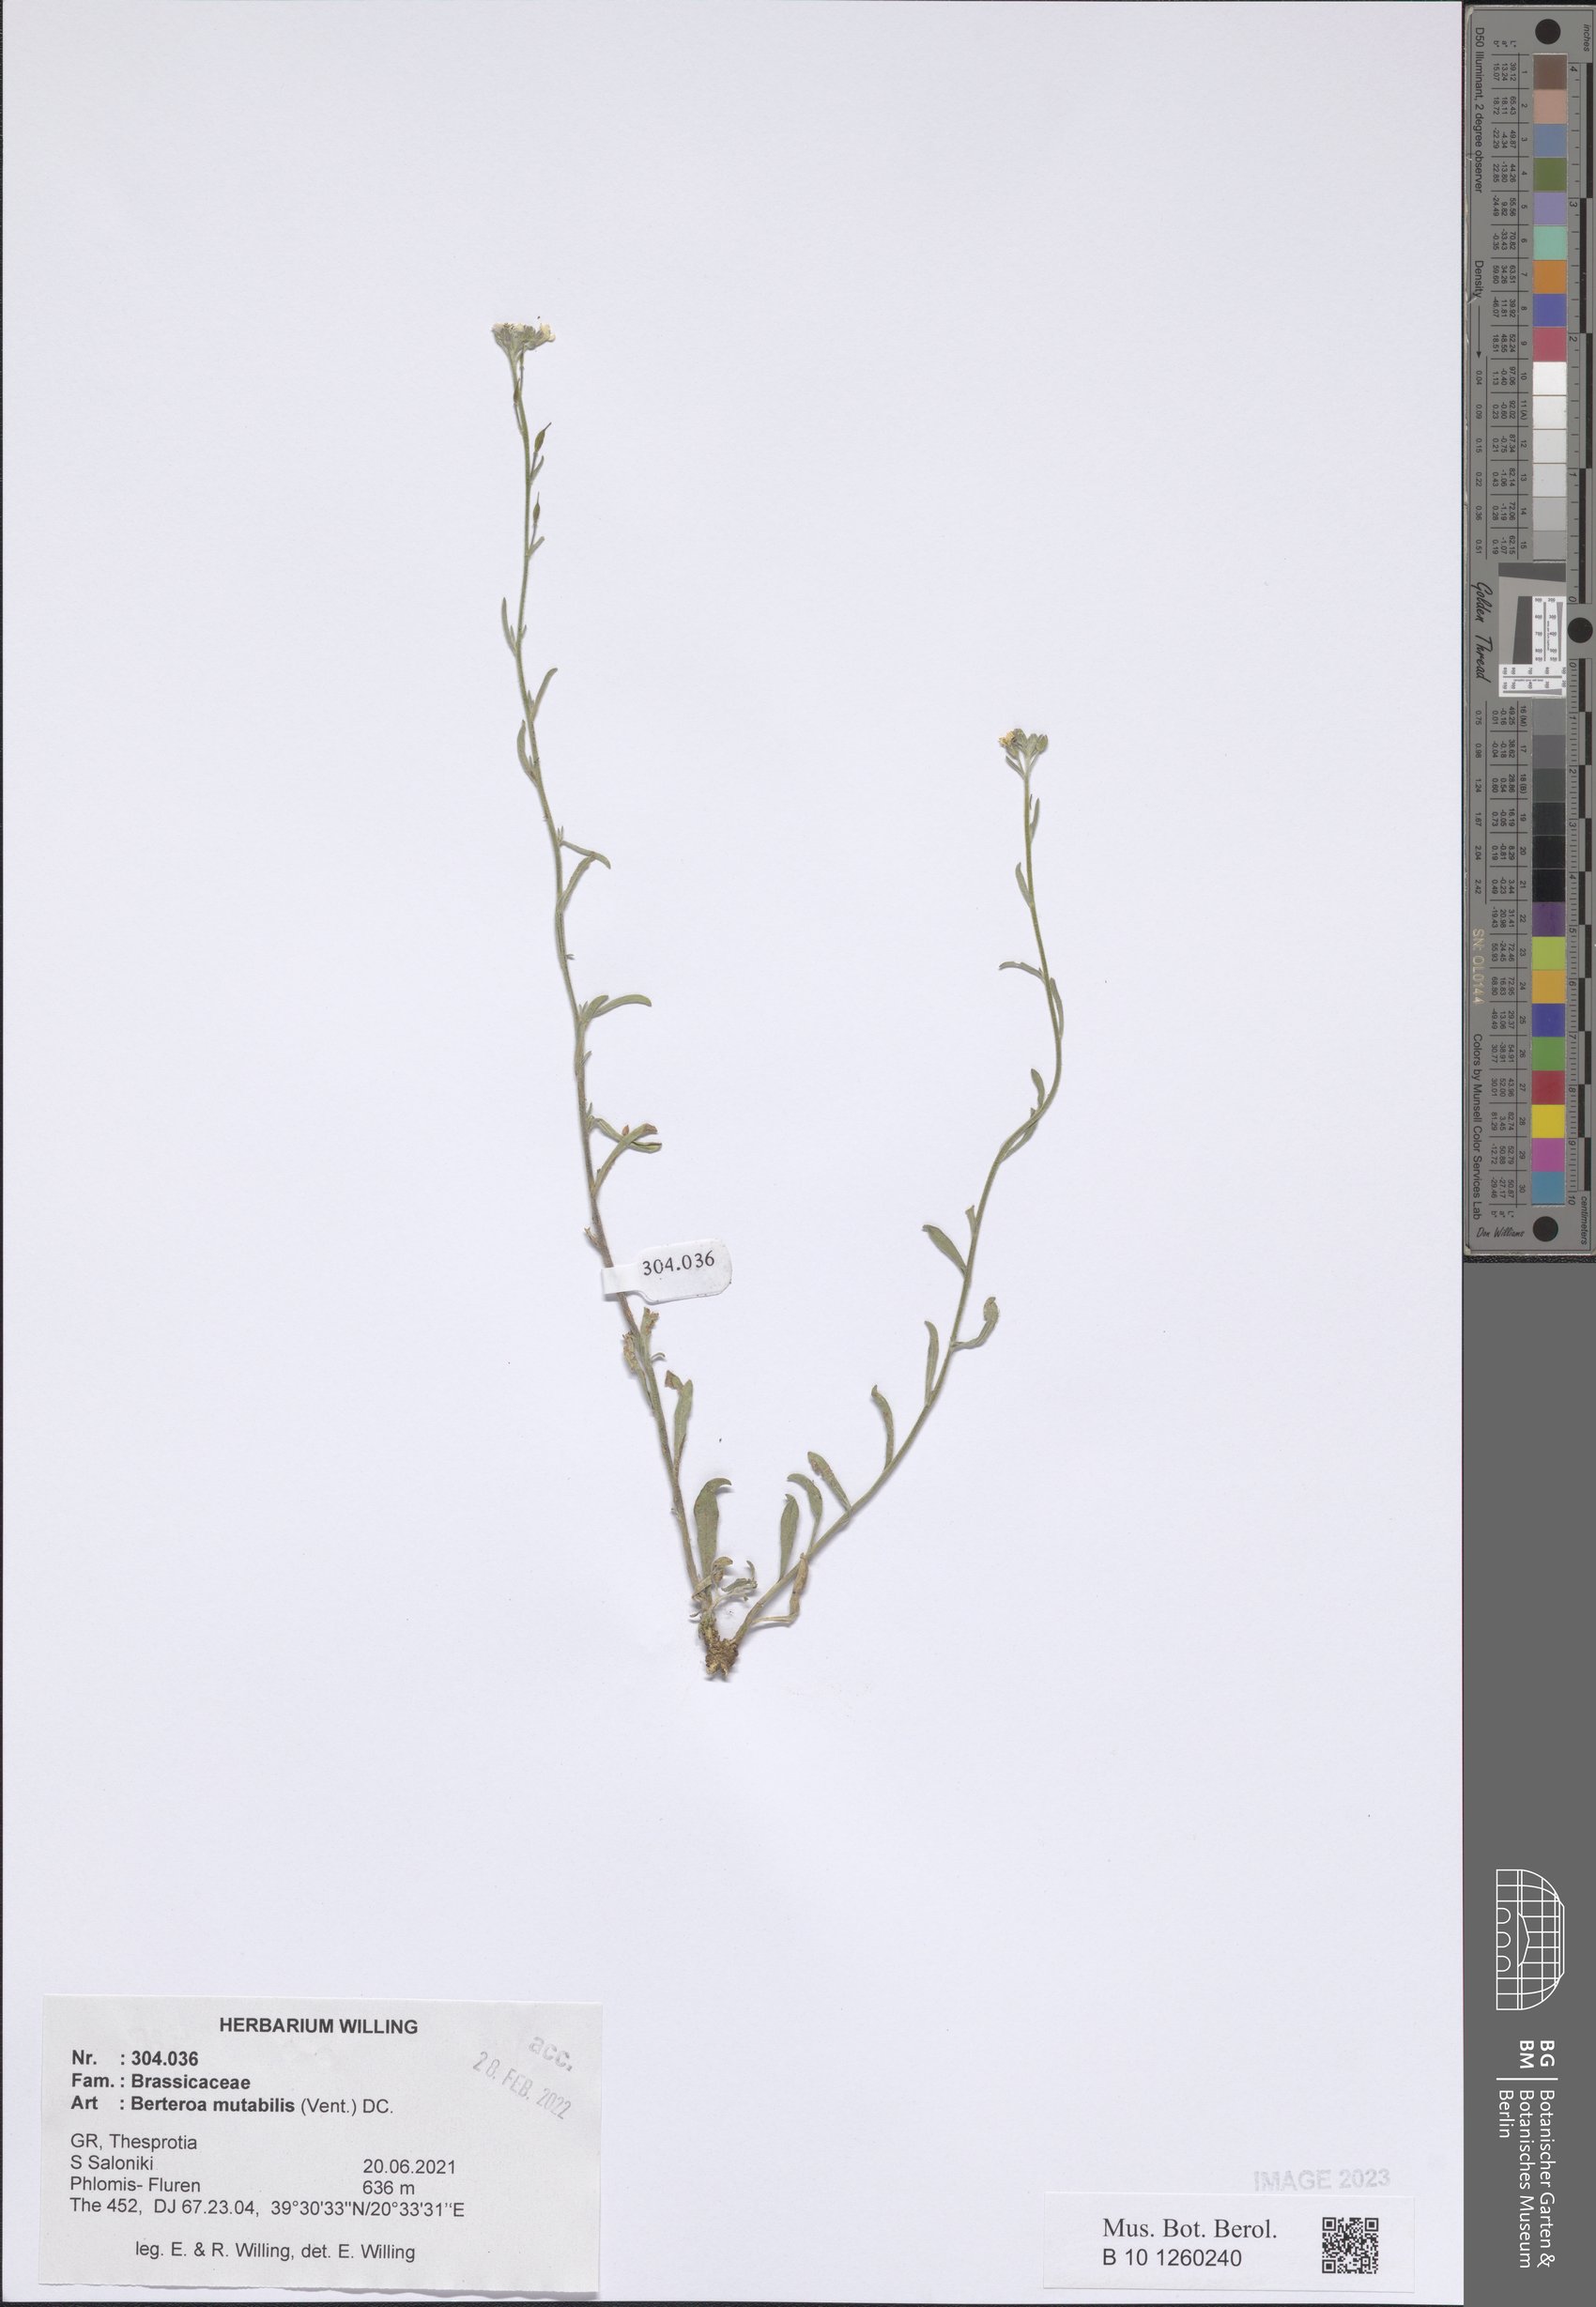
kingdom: Plantae
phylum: Tracheophyta
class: Magnoliopsida
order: Brassicales
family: Brassicaceae
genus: Berteroa
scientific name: Berteroa mutabilis
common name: Roadside false madwort
